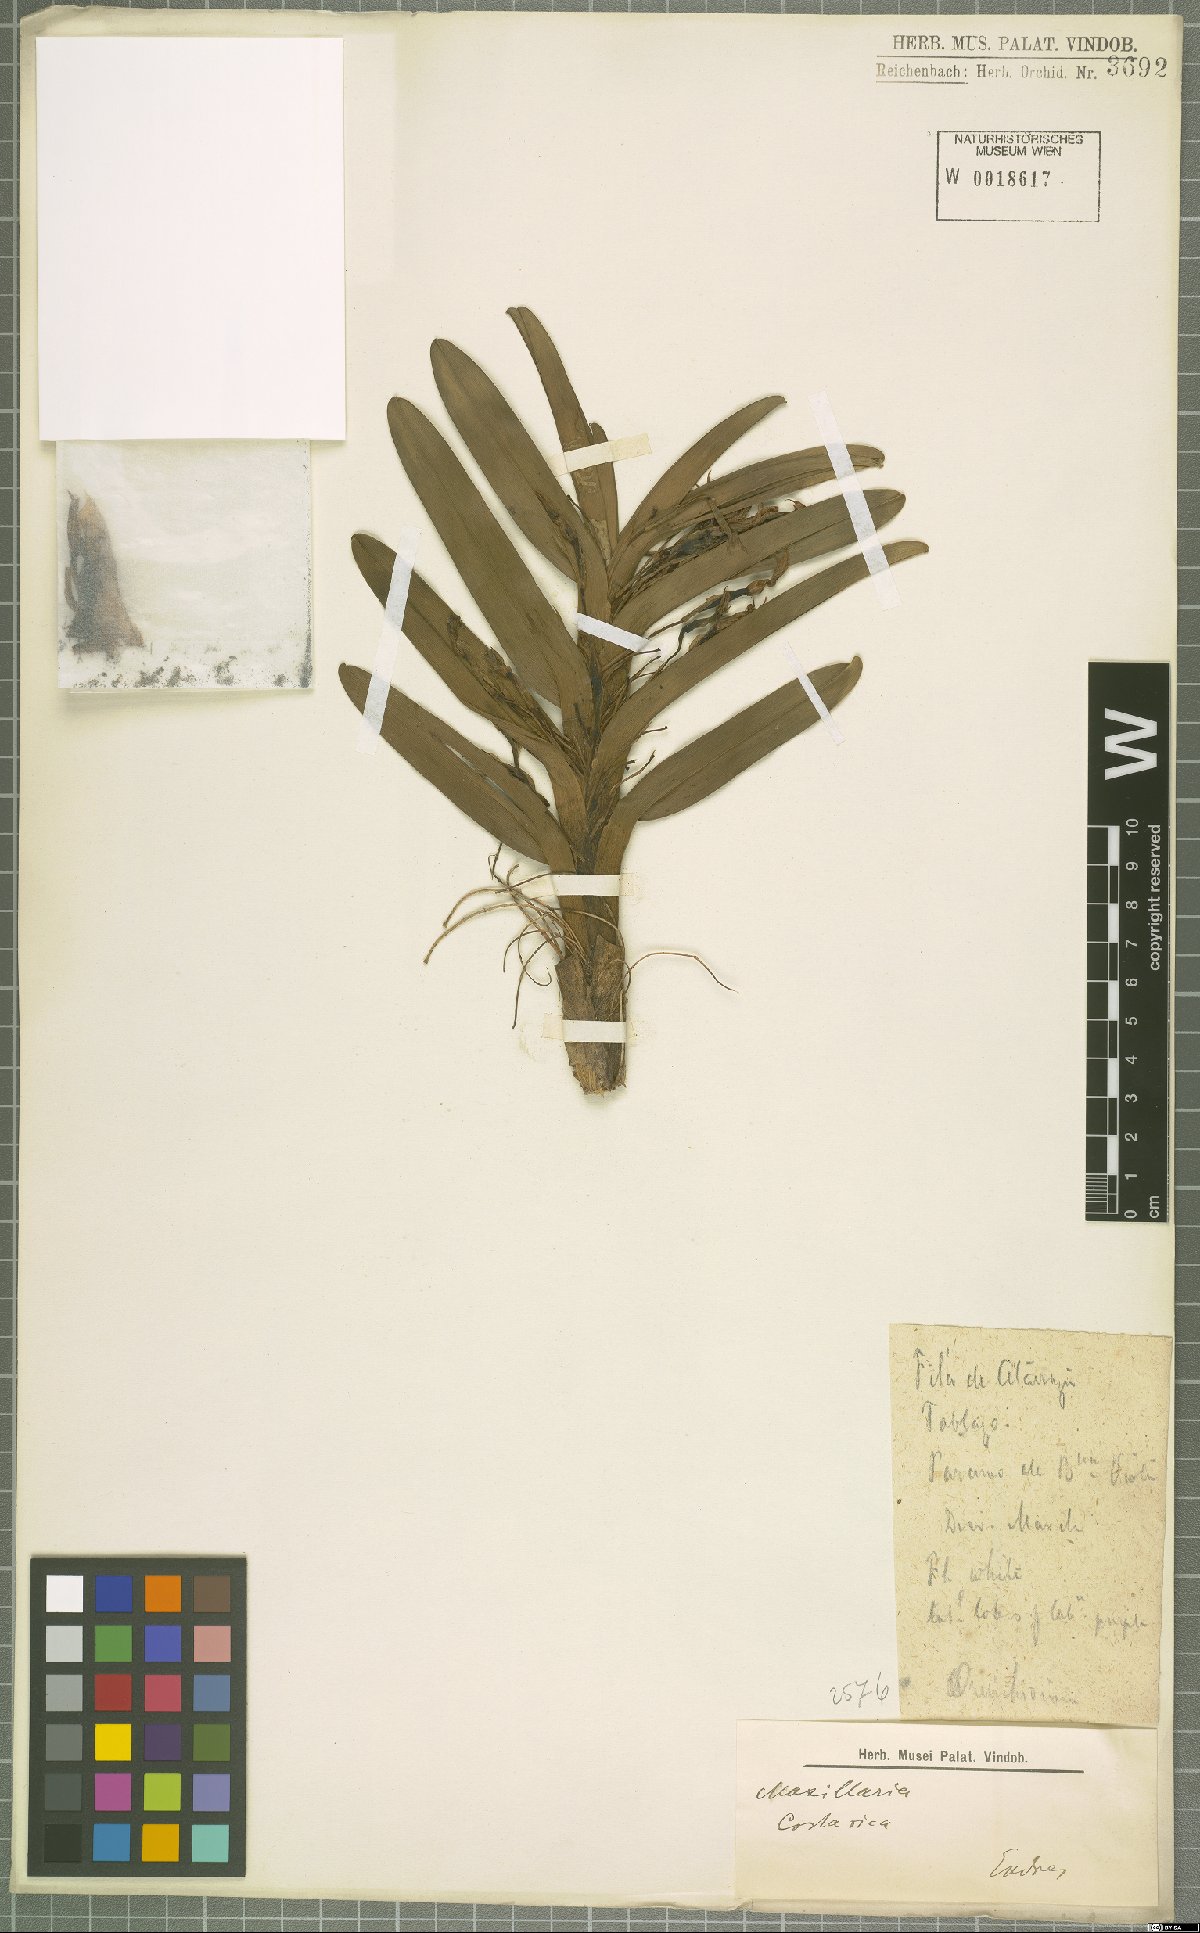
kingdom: Plantae
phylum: Tracheophyta
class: Liliopsida
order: Asparagales
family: Orchidaceae
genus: Maxillaria
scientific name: Maxillaria
